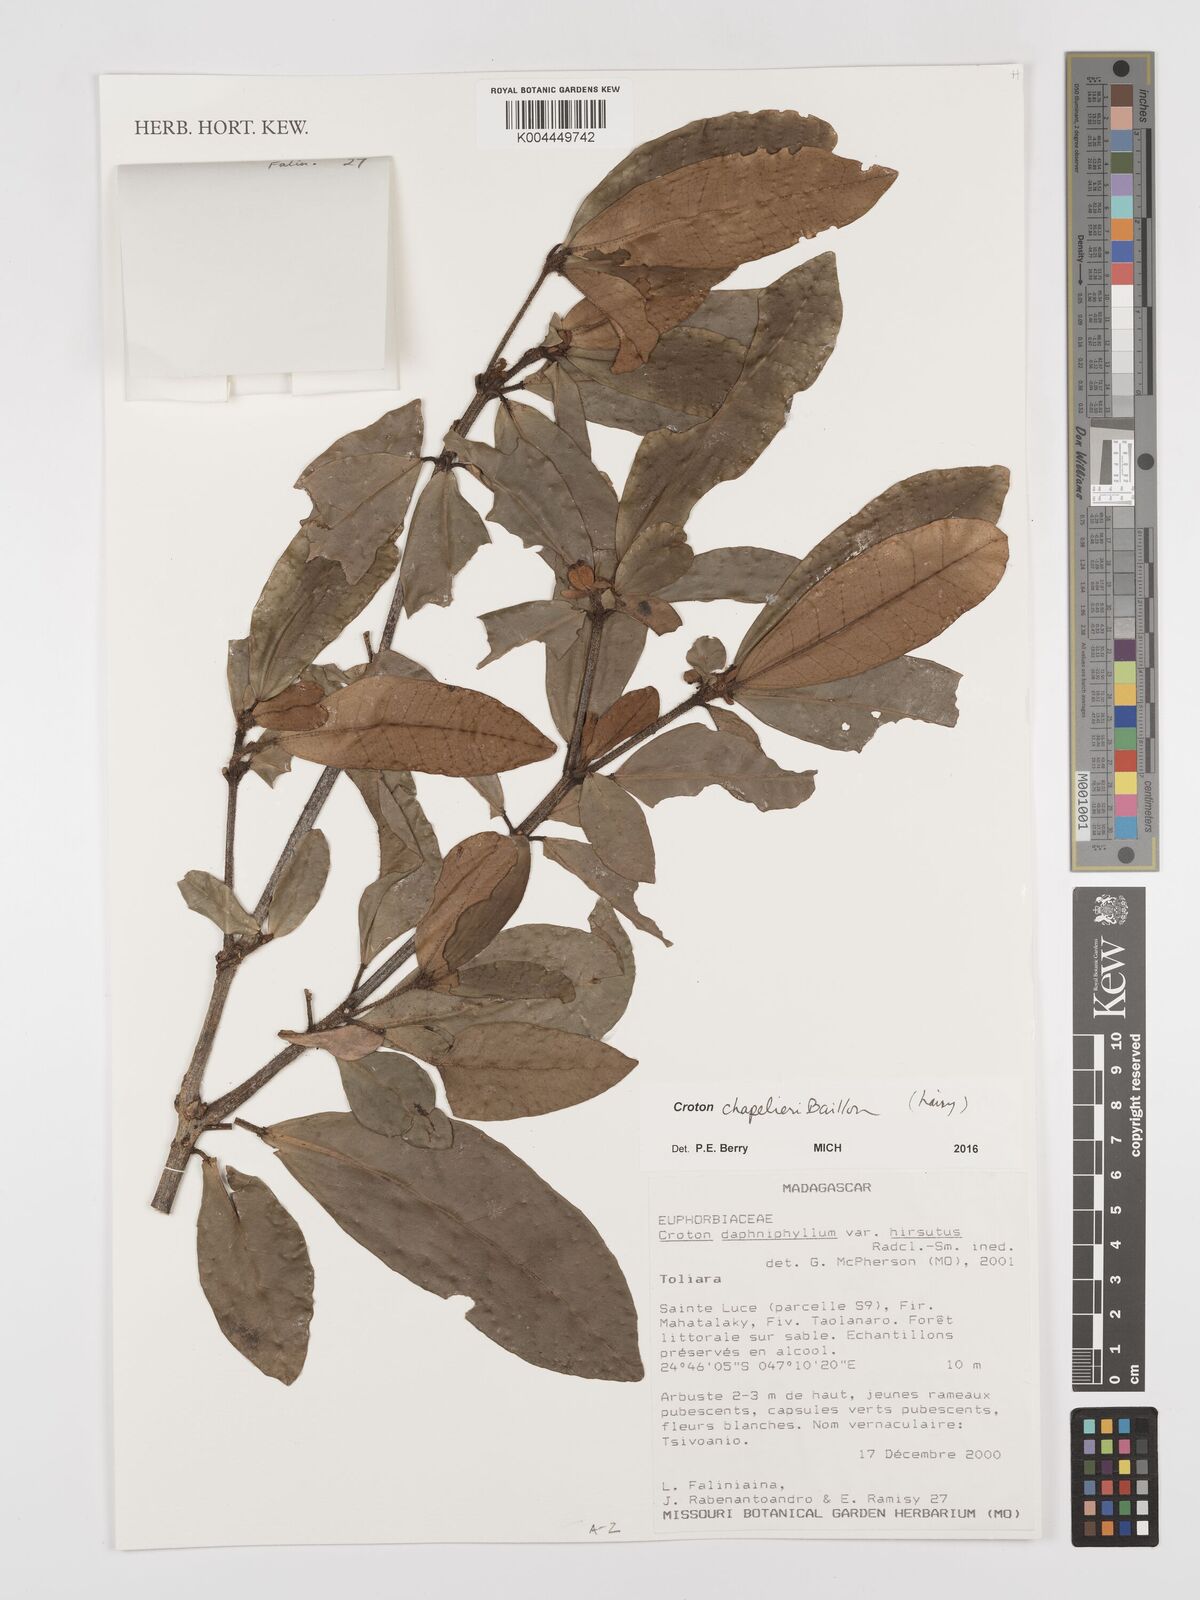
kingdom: Plantae
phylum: Tracheophyta
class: Magnoliopsida
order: Malpighiales
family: Euphorbiaceae
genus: Croton
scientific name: Croton chapelieri
